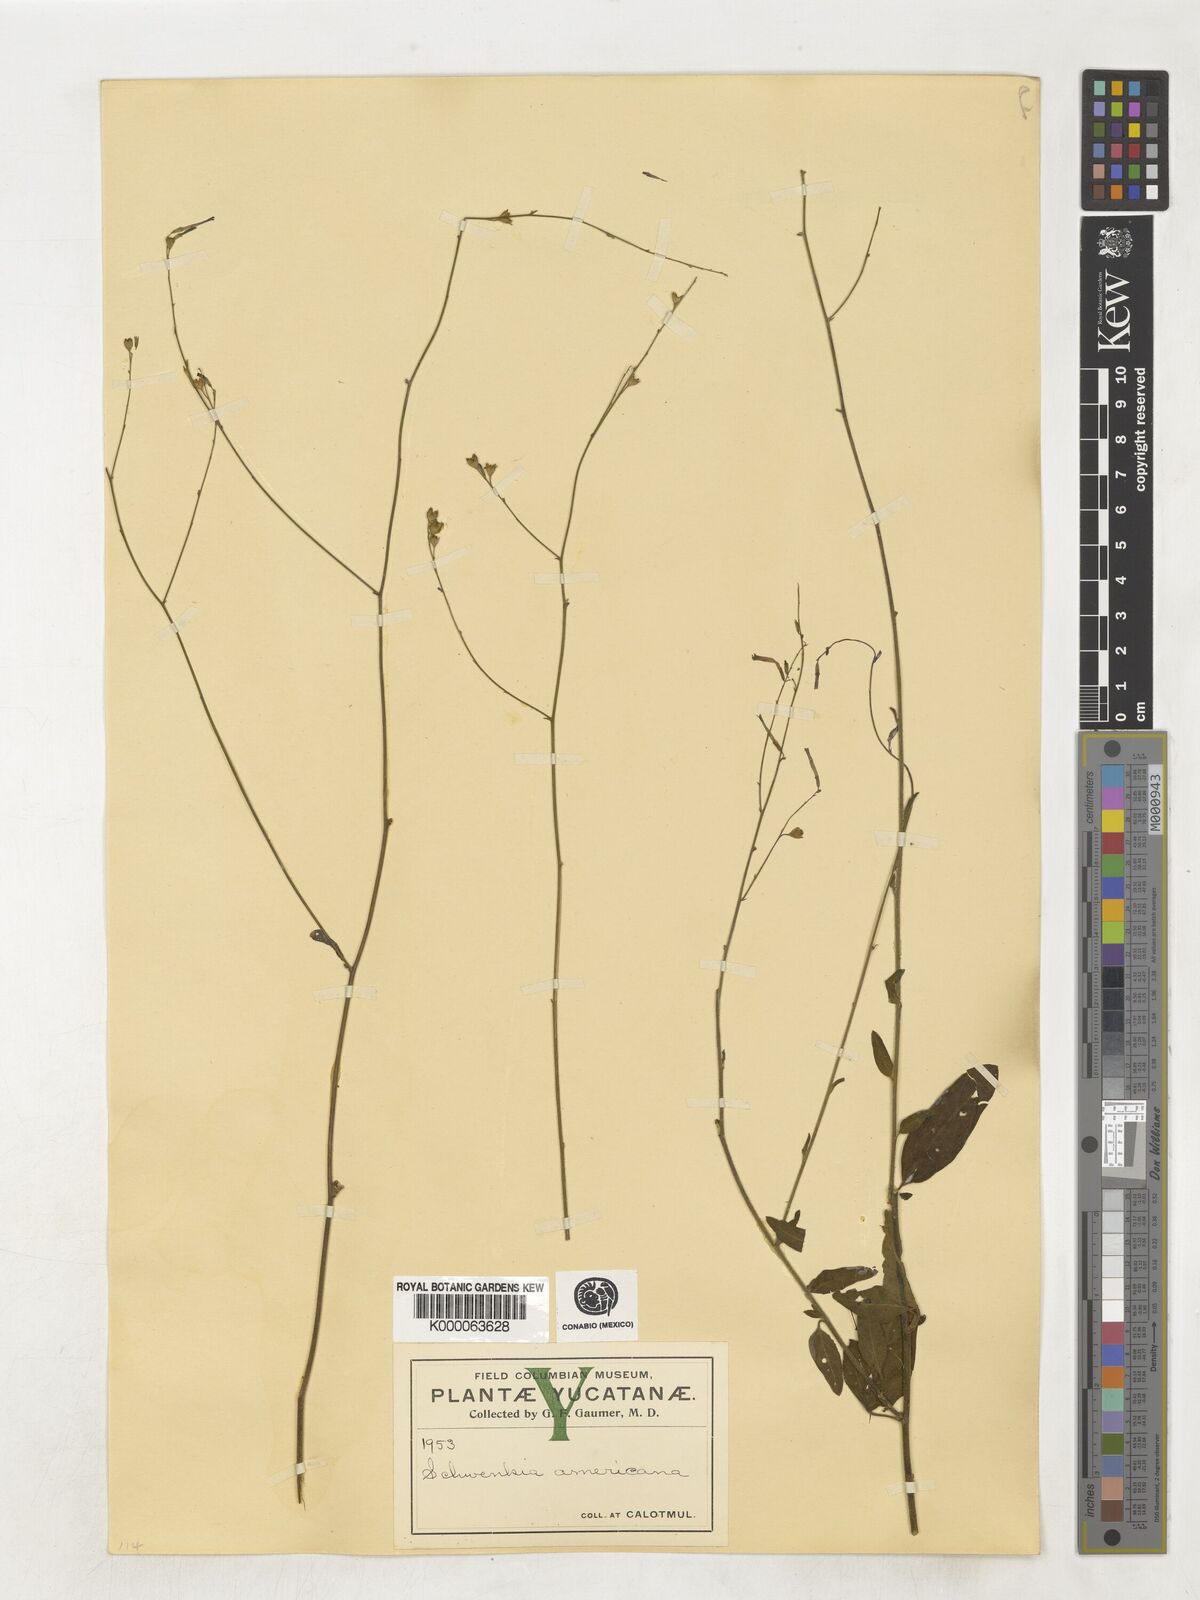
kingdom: Plantae
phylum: Tracheophyta
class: Magnoliopsida
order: Solanales
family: Solanaceae
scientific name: Solanaceae
